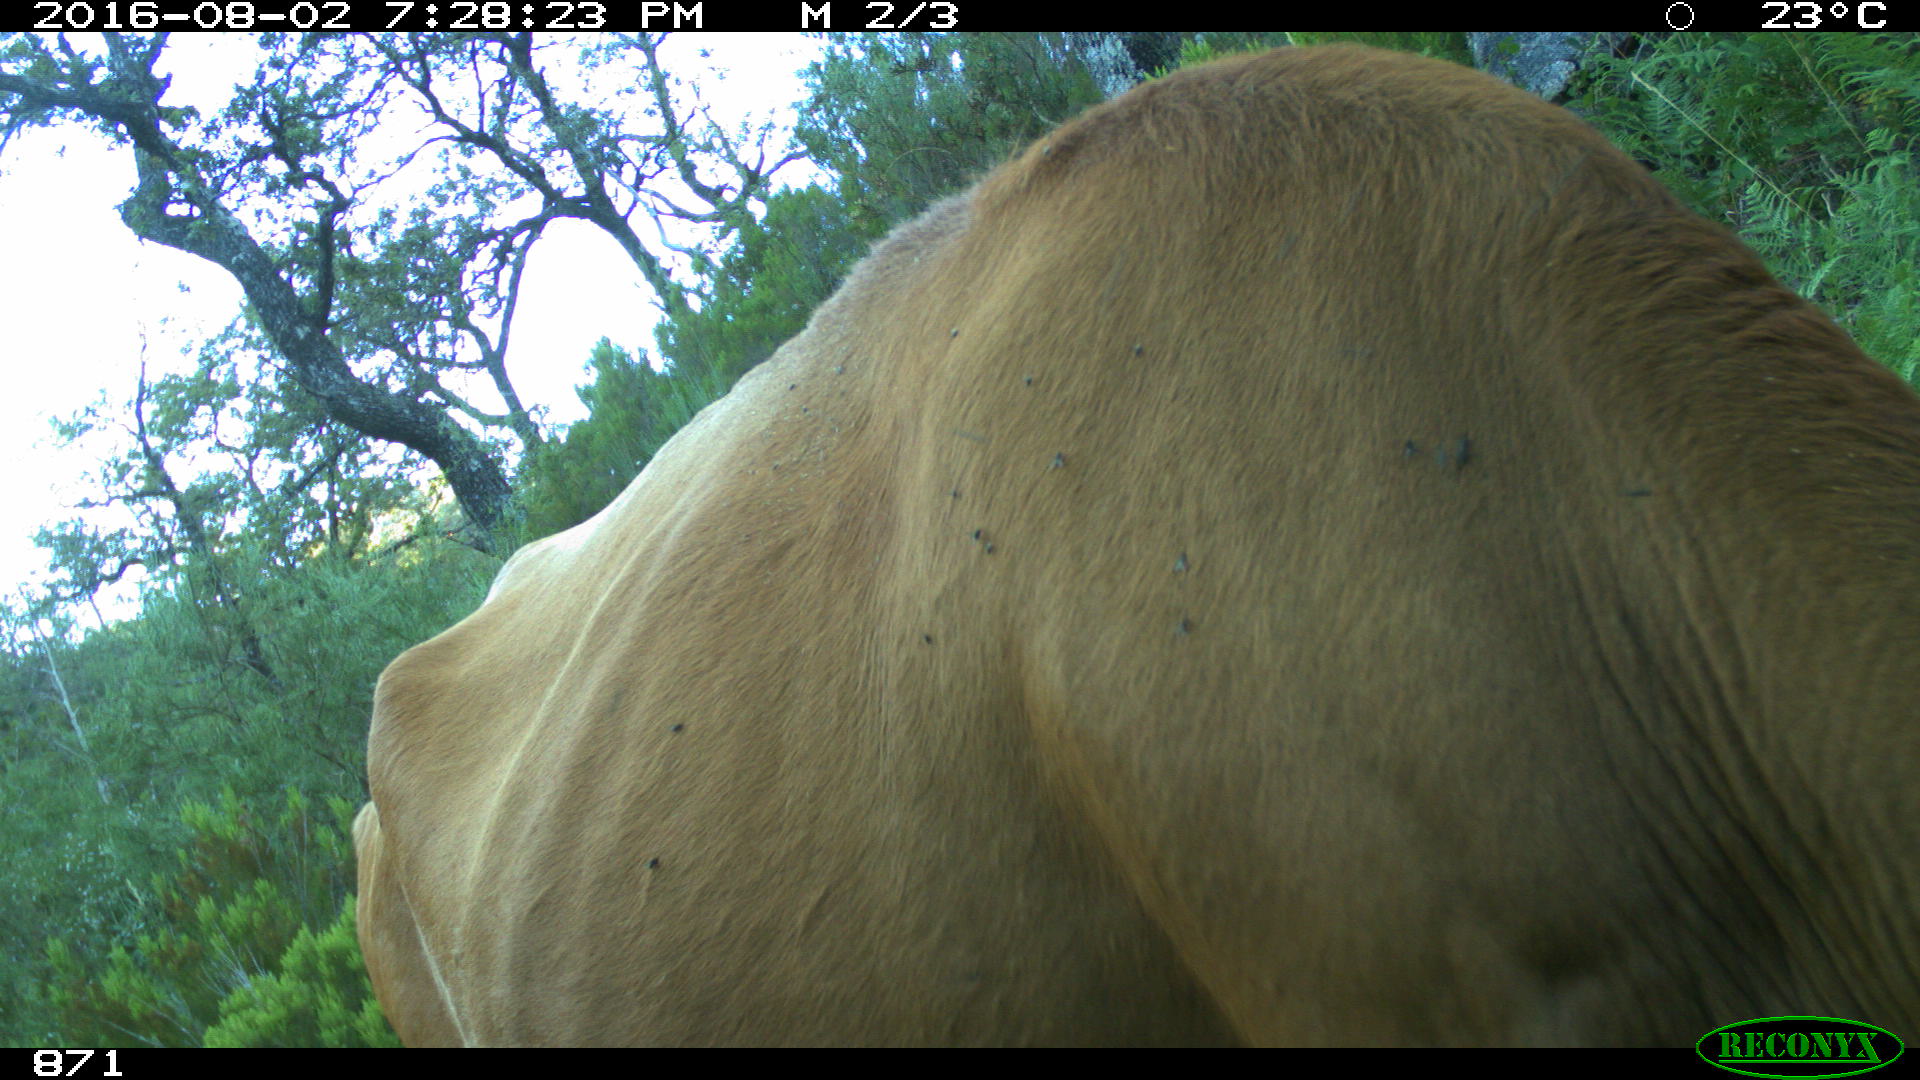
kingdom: Animalia
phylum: Chordata
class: Mammalia
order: Artiodactyla
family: Bovidae
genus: Bos
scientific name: Bos taurus
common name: Domesticated cattle
